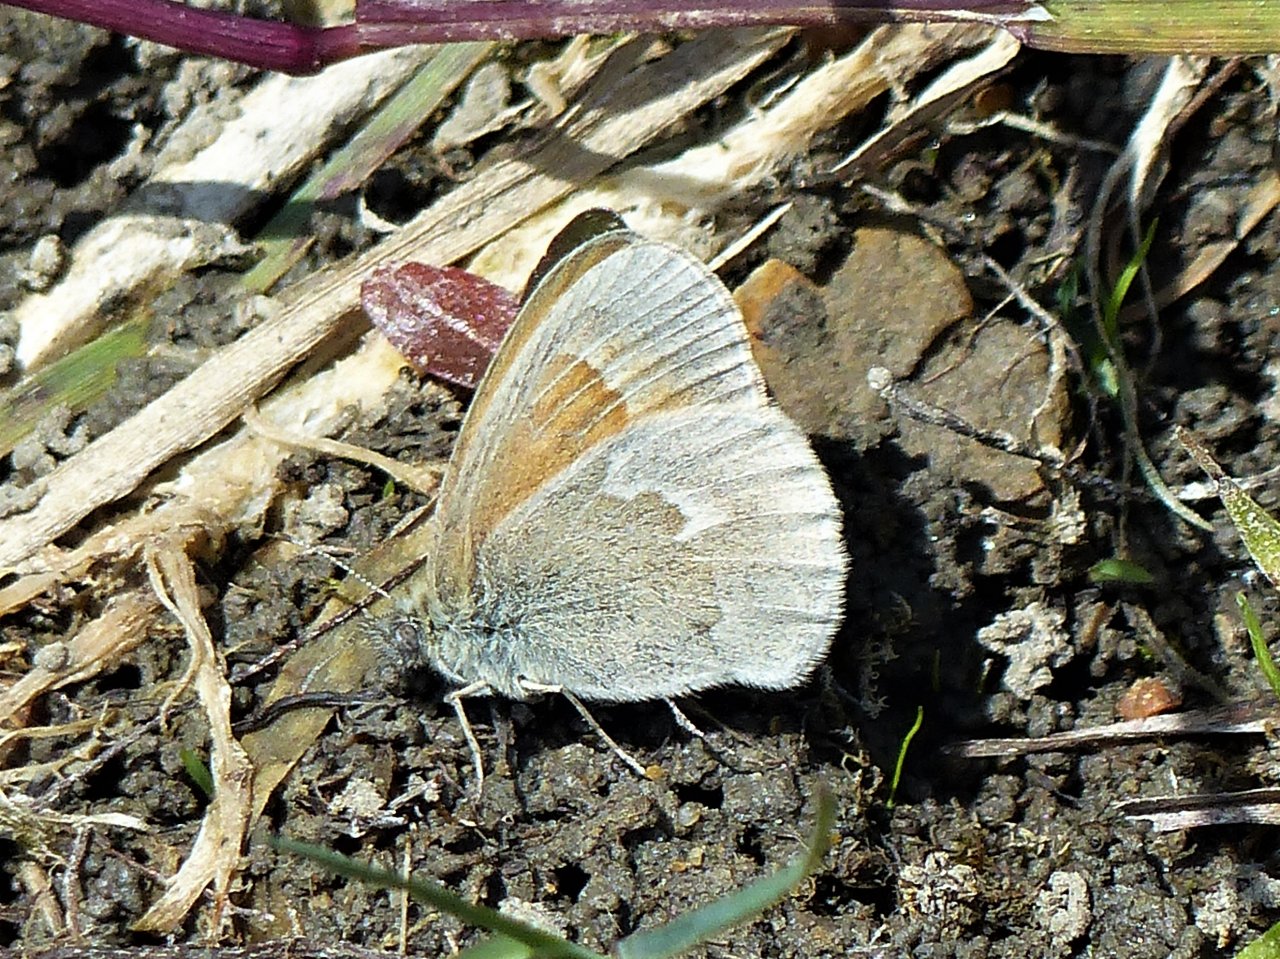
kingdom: Animalia
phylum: Arthropoda
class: Insecta
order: Lepidoptera
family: Nymphalidae
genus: Coenonympha
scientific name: Coenonympha tullia
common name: Large Heath
